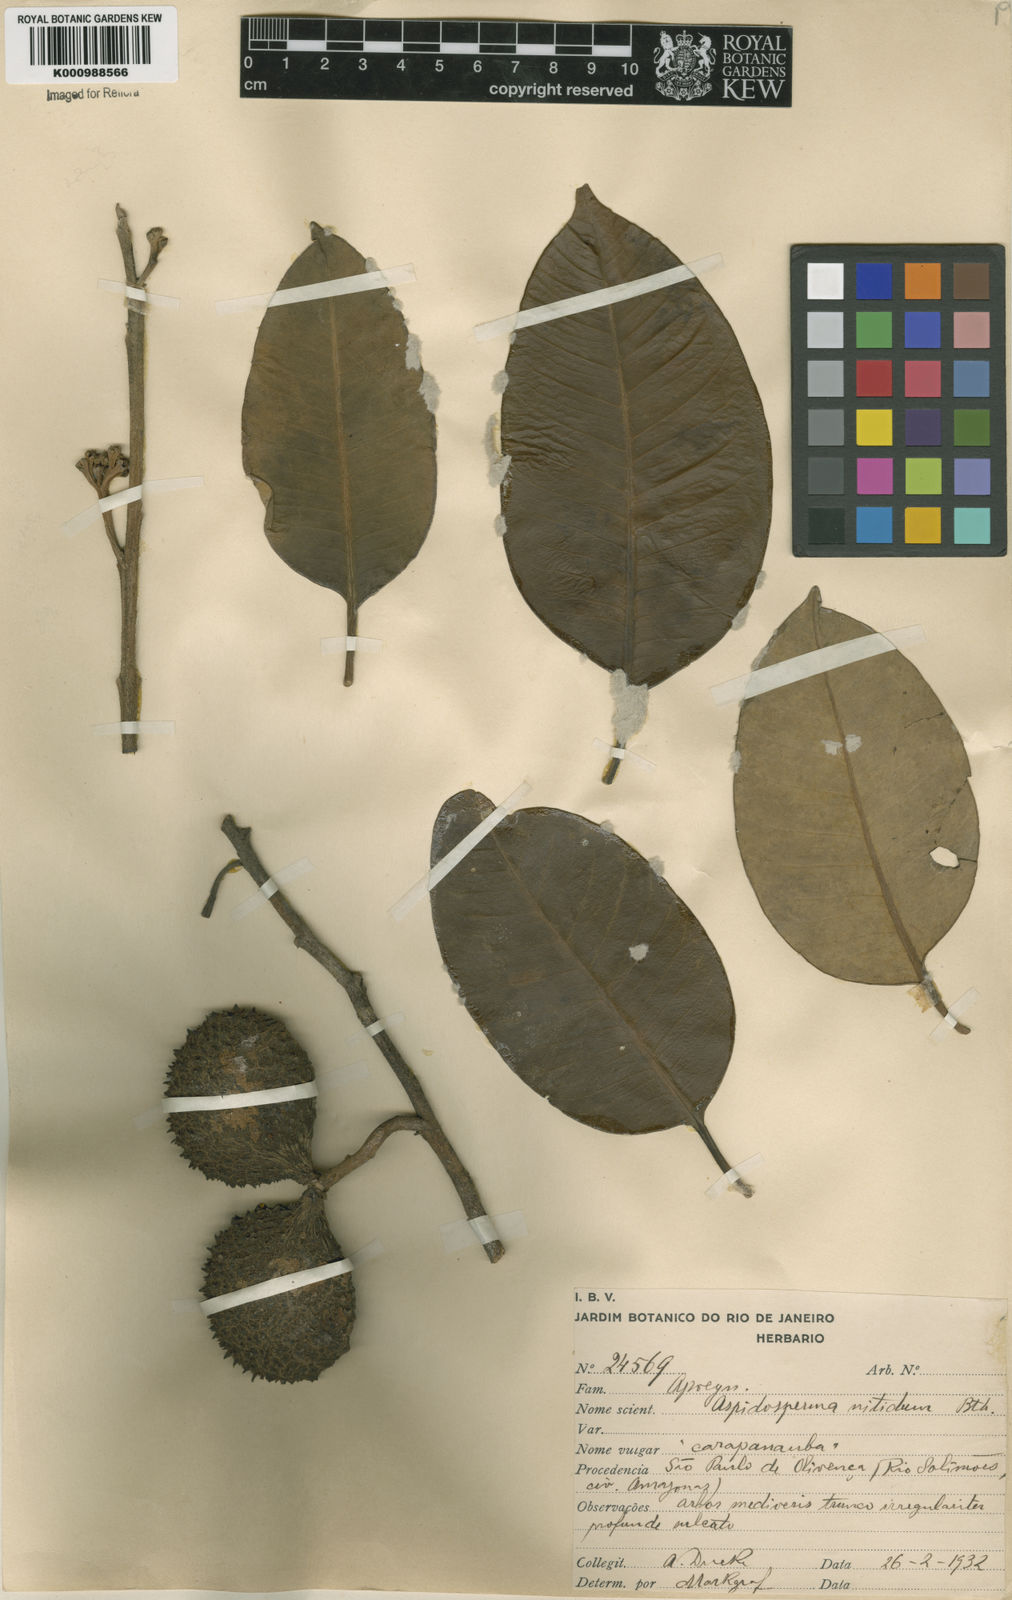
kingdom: Plantae
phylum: Tracheophyta
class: Magnoliopsida
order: Gentianales
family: Apocynaceae
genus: Aspidosperma
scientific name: Aspidosperma
